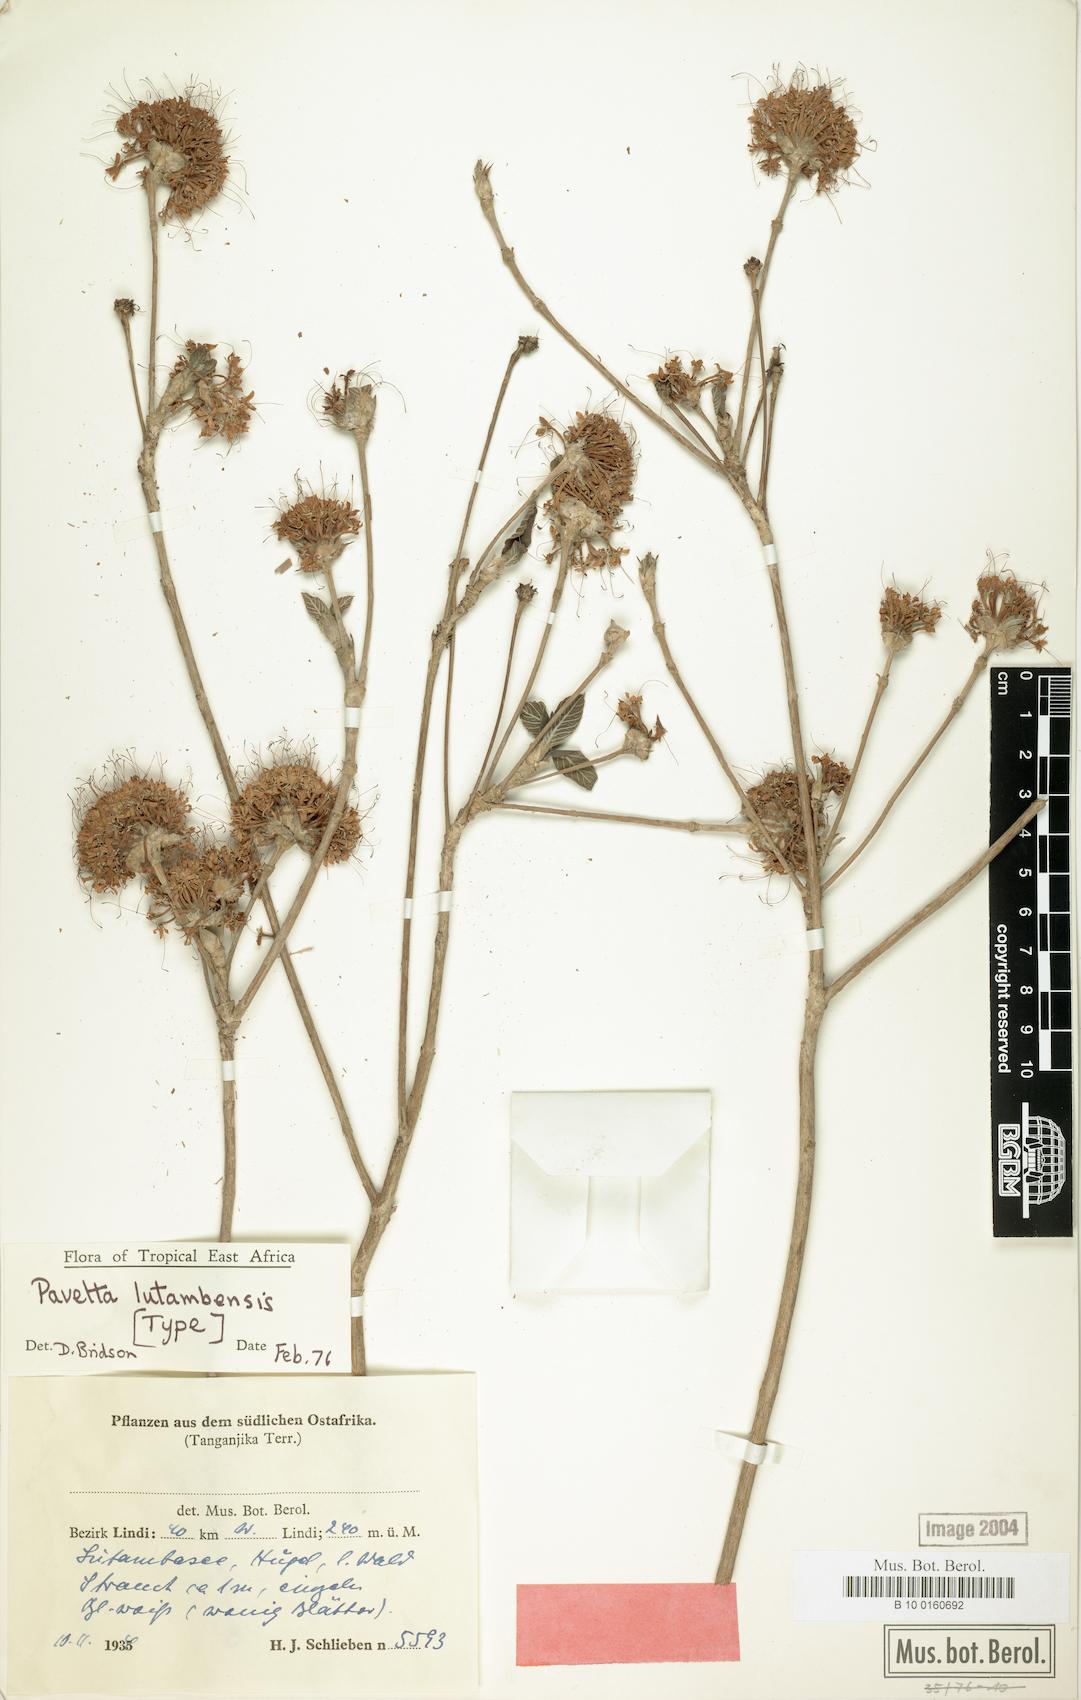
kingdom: Plantae
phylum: Tracheophyta
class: Magnoliopsida
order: Gentianales
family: Rubiaceae
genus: Pavetta
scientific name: Pavetta lutambensis
